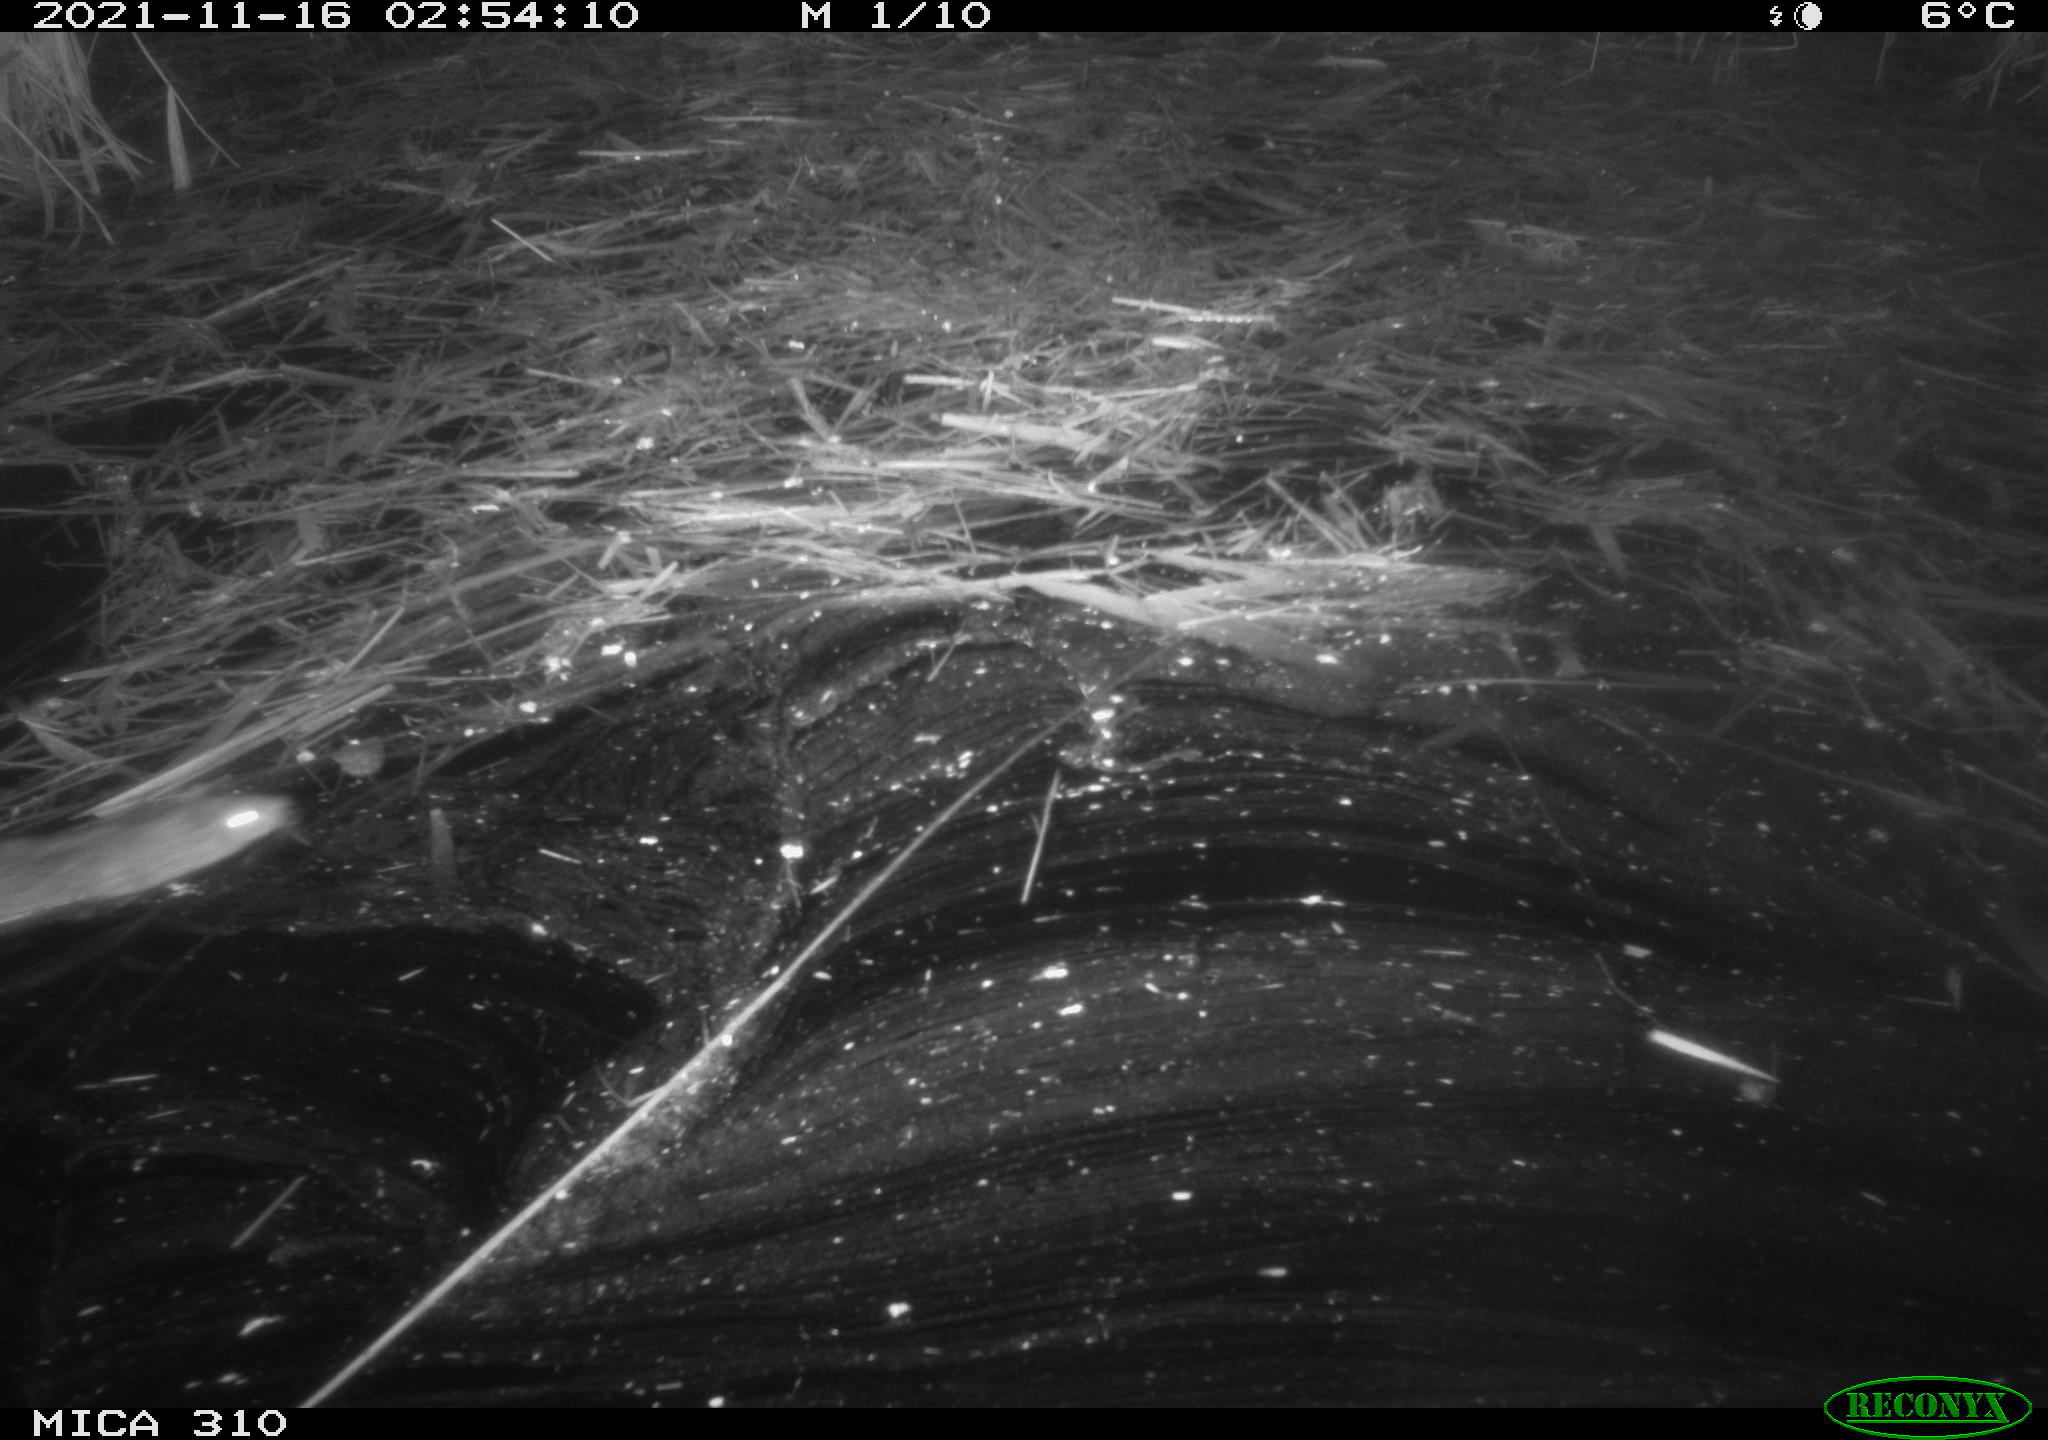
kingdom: Animalia
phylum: Chordata
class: Mammalia
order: Rodentia
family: Muridae
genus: Rattus
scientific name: Rattus norvegicus
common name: Brown rat
